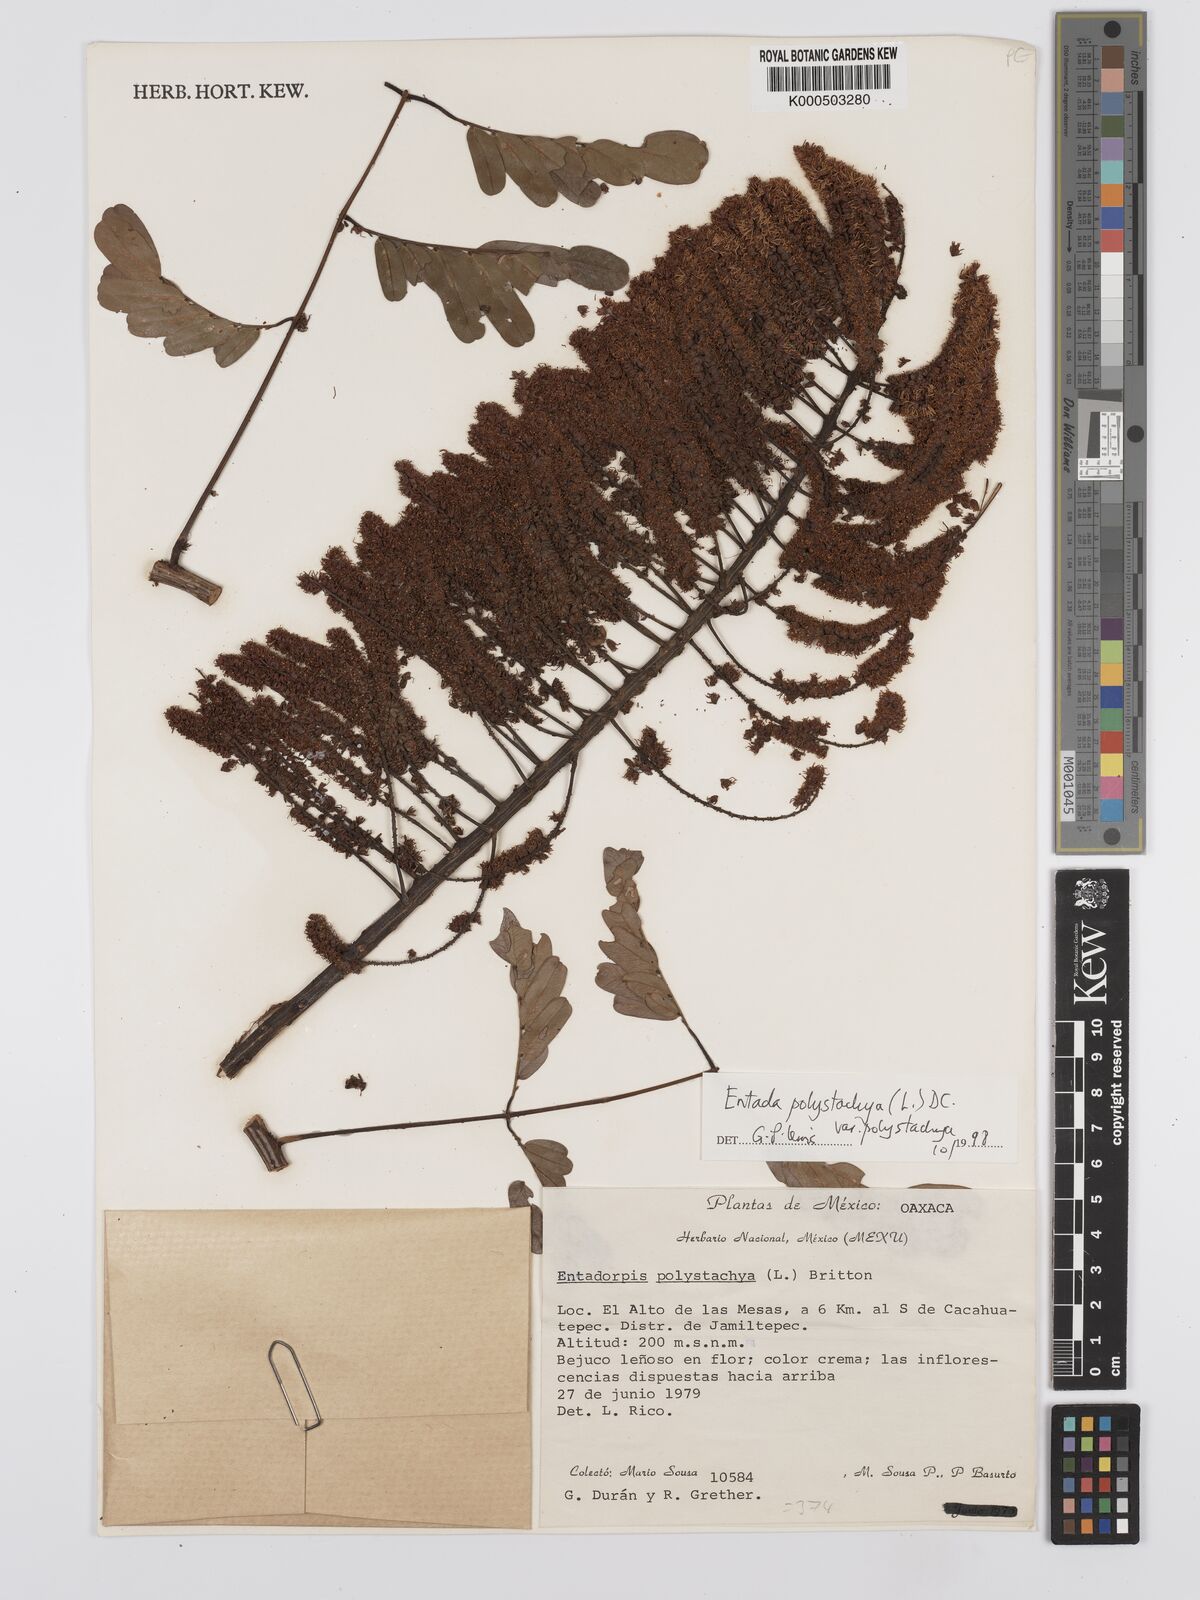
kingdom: Plantae
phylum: Tracheophyta
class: Magnoliopsida
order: Fabales
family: Fabaceae
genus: Entada
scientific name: Entada polystachya
